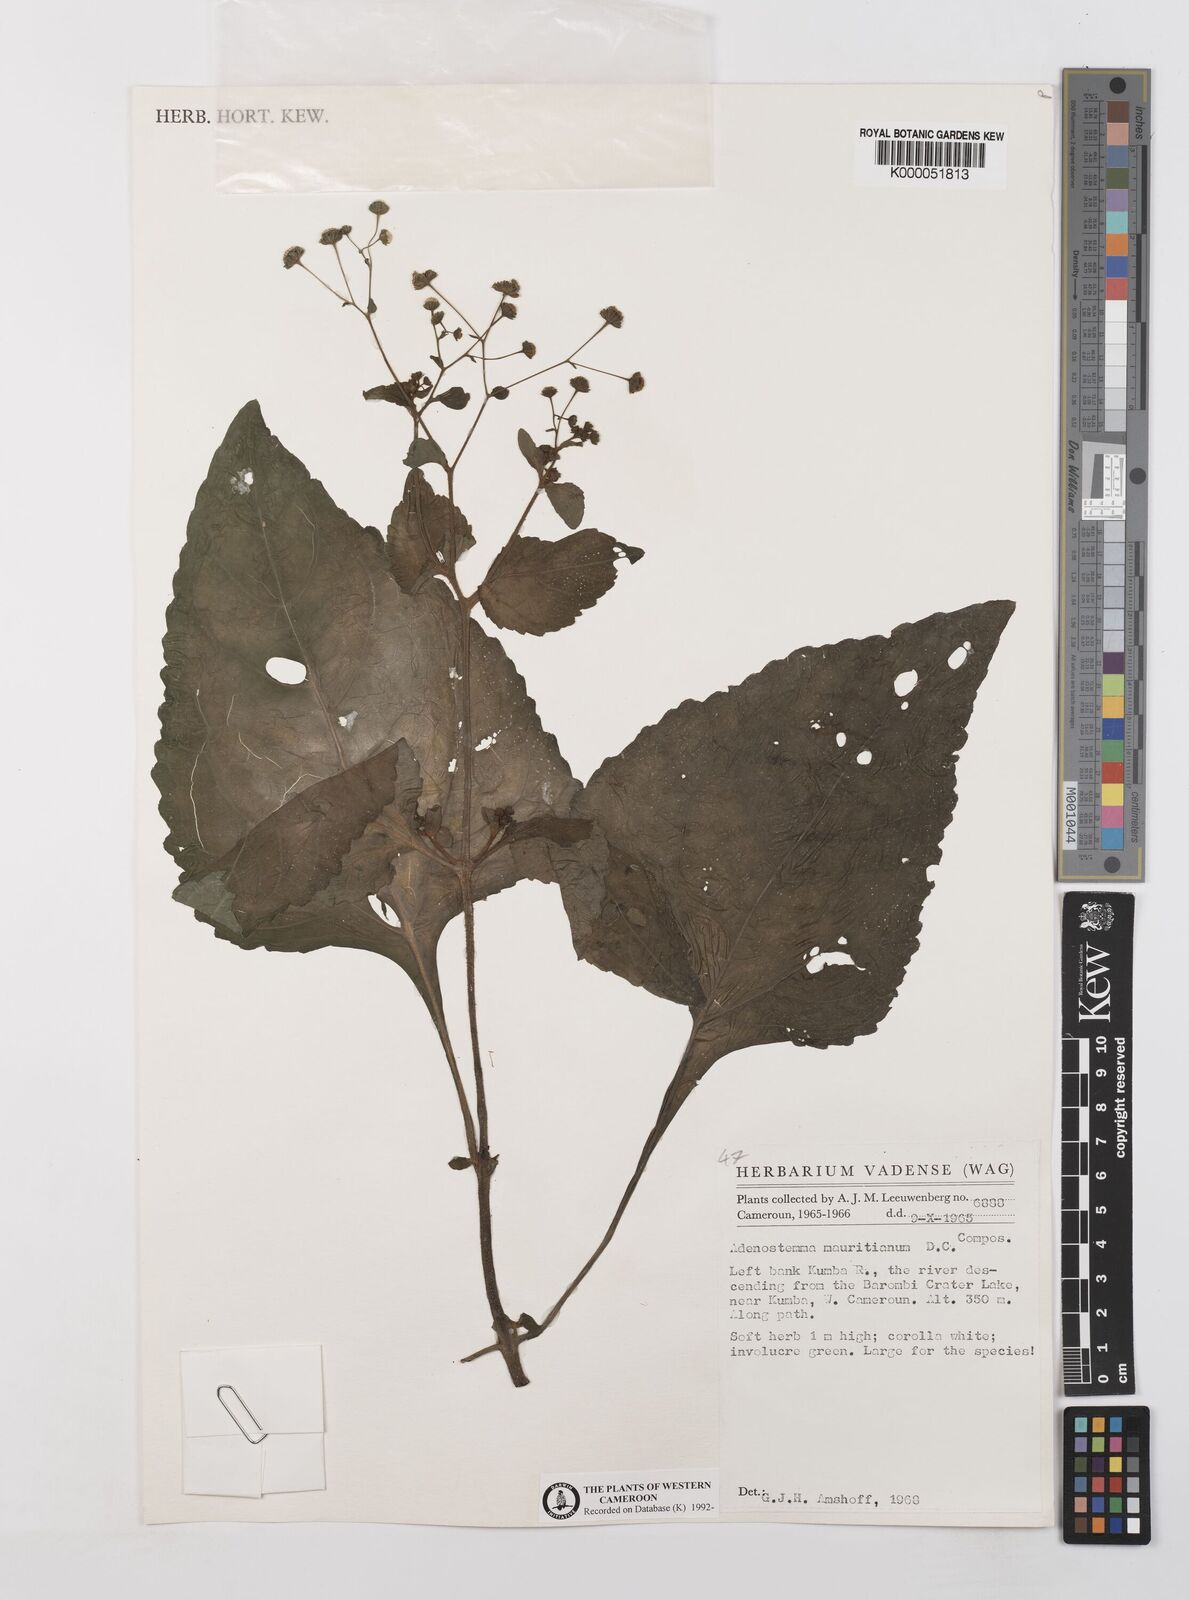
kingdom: Plantae
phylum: Tracheophyta
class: Magnoliopsida
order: Asterales
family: Asteraceae
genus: Adenostemma
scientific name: Adenostemma mauritianum
